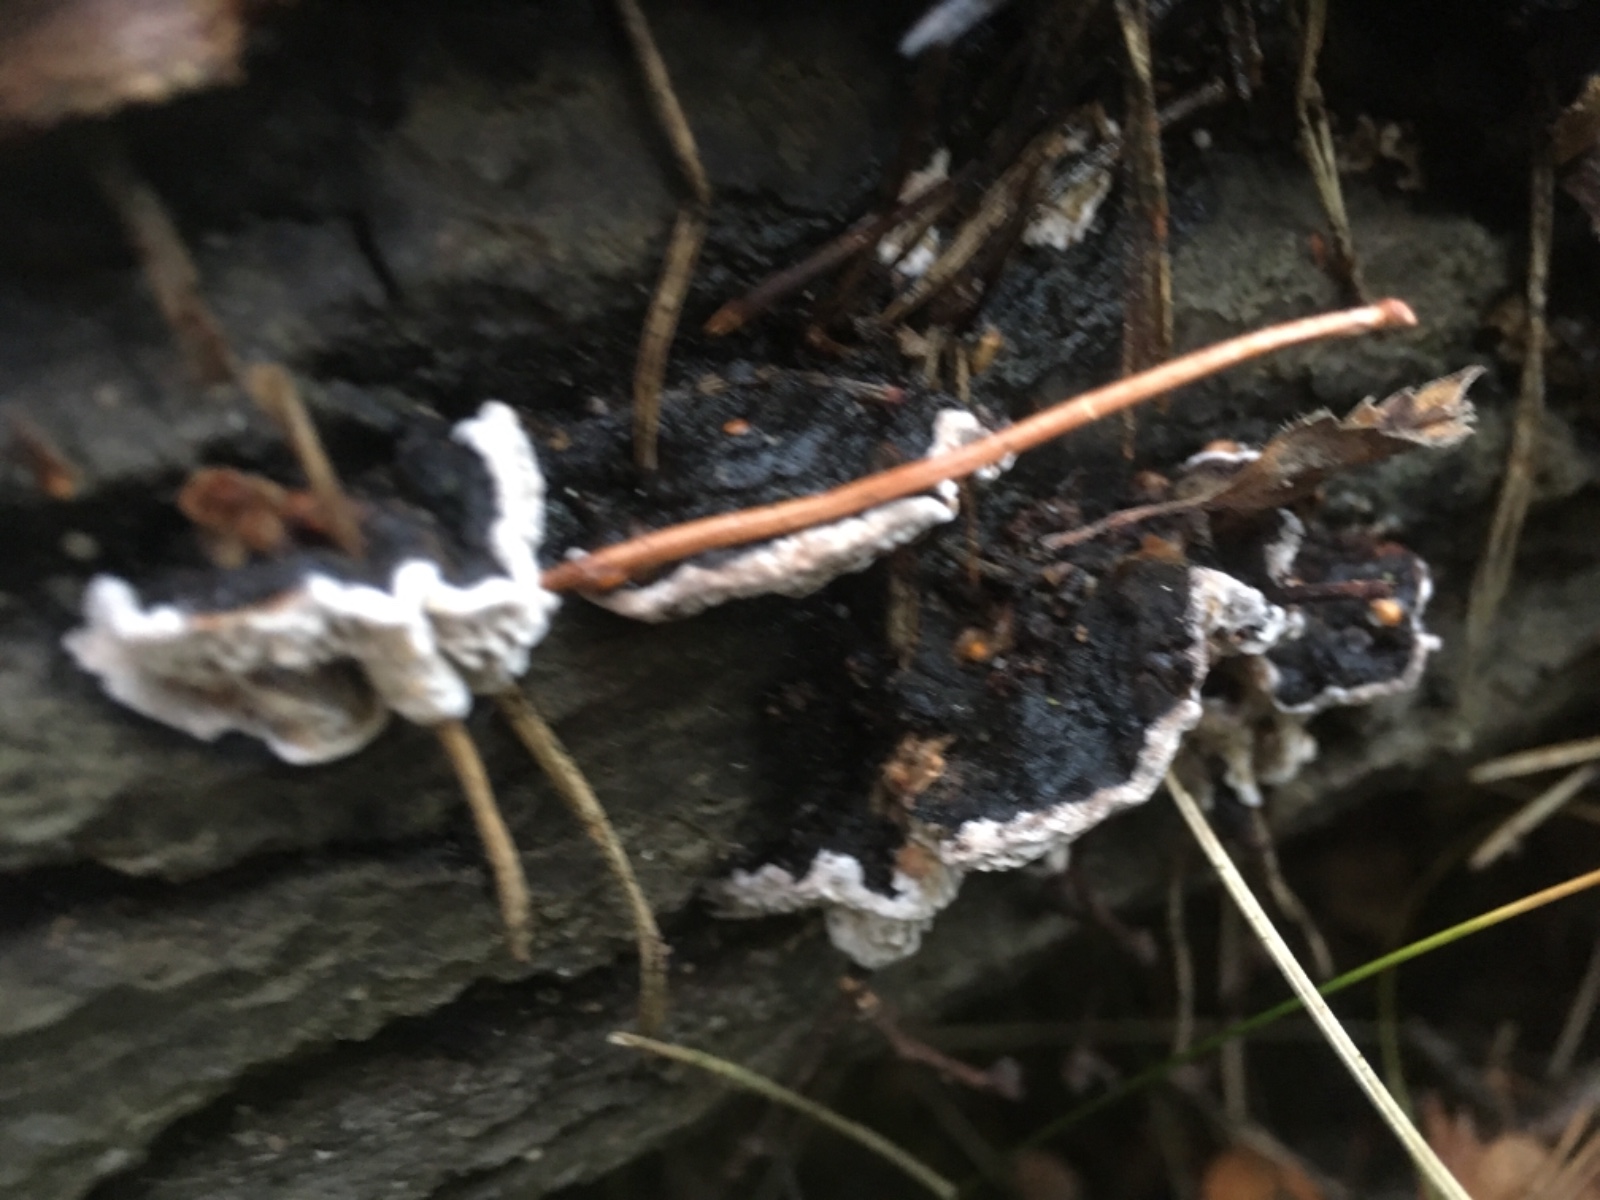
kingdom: Fungi
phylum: Basidiomycota
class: Agaricomycetes
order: Polyporales
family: Polyporaceae
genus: Podofomes
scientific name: Podofomes mollis
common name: blød begporesvamp
